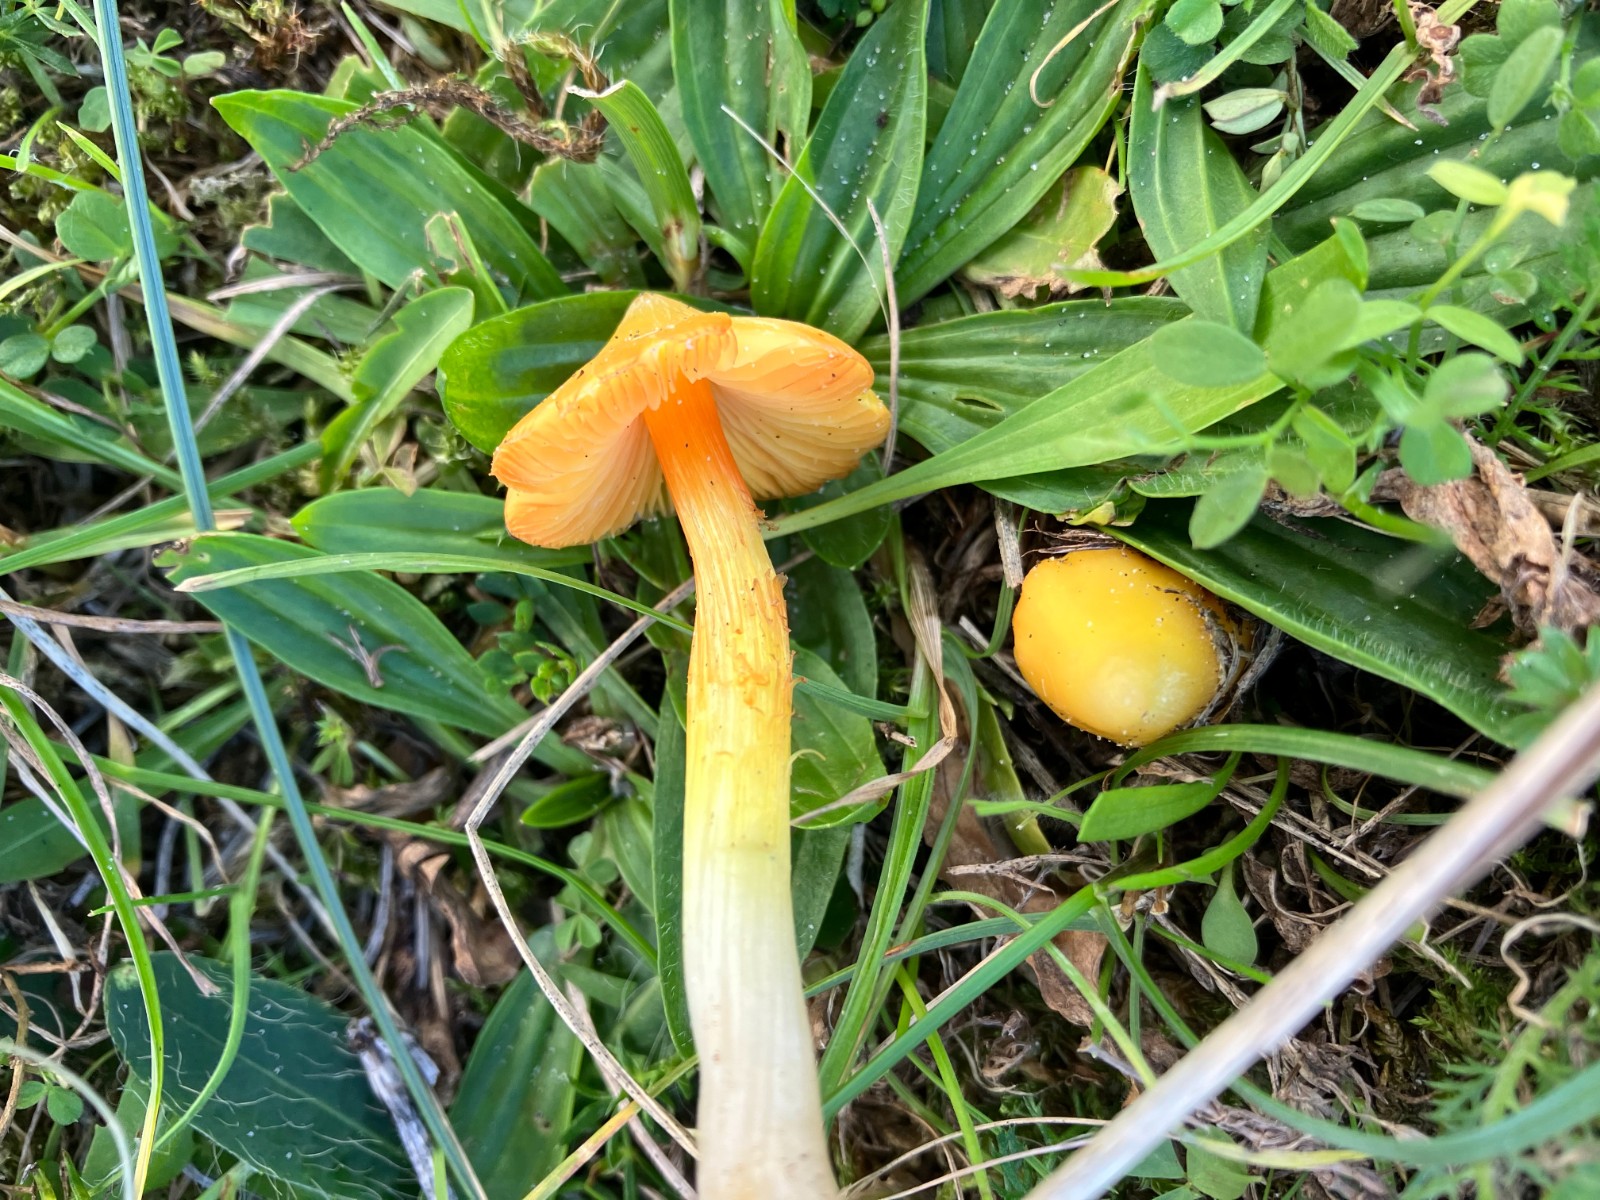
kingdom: Fungi
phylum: Basidiomycota
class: Agaricomycetes
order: Agaricales
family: Hygrophoraceae
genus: Hygrocybe
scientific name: Hygrocybe
